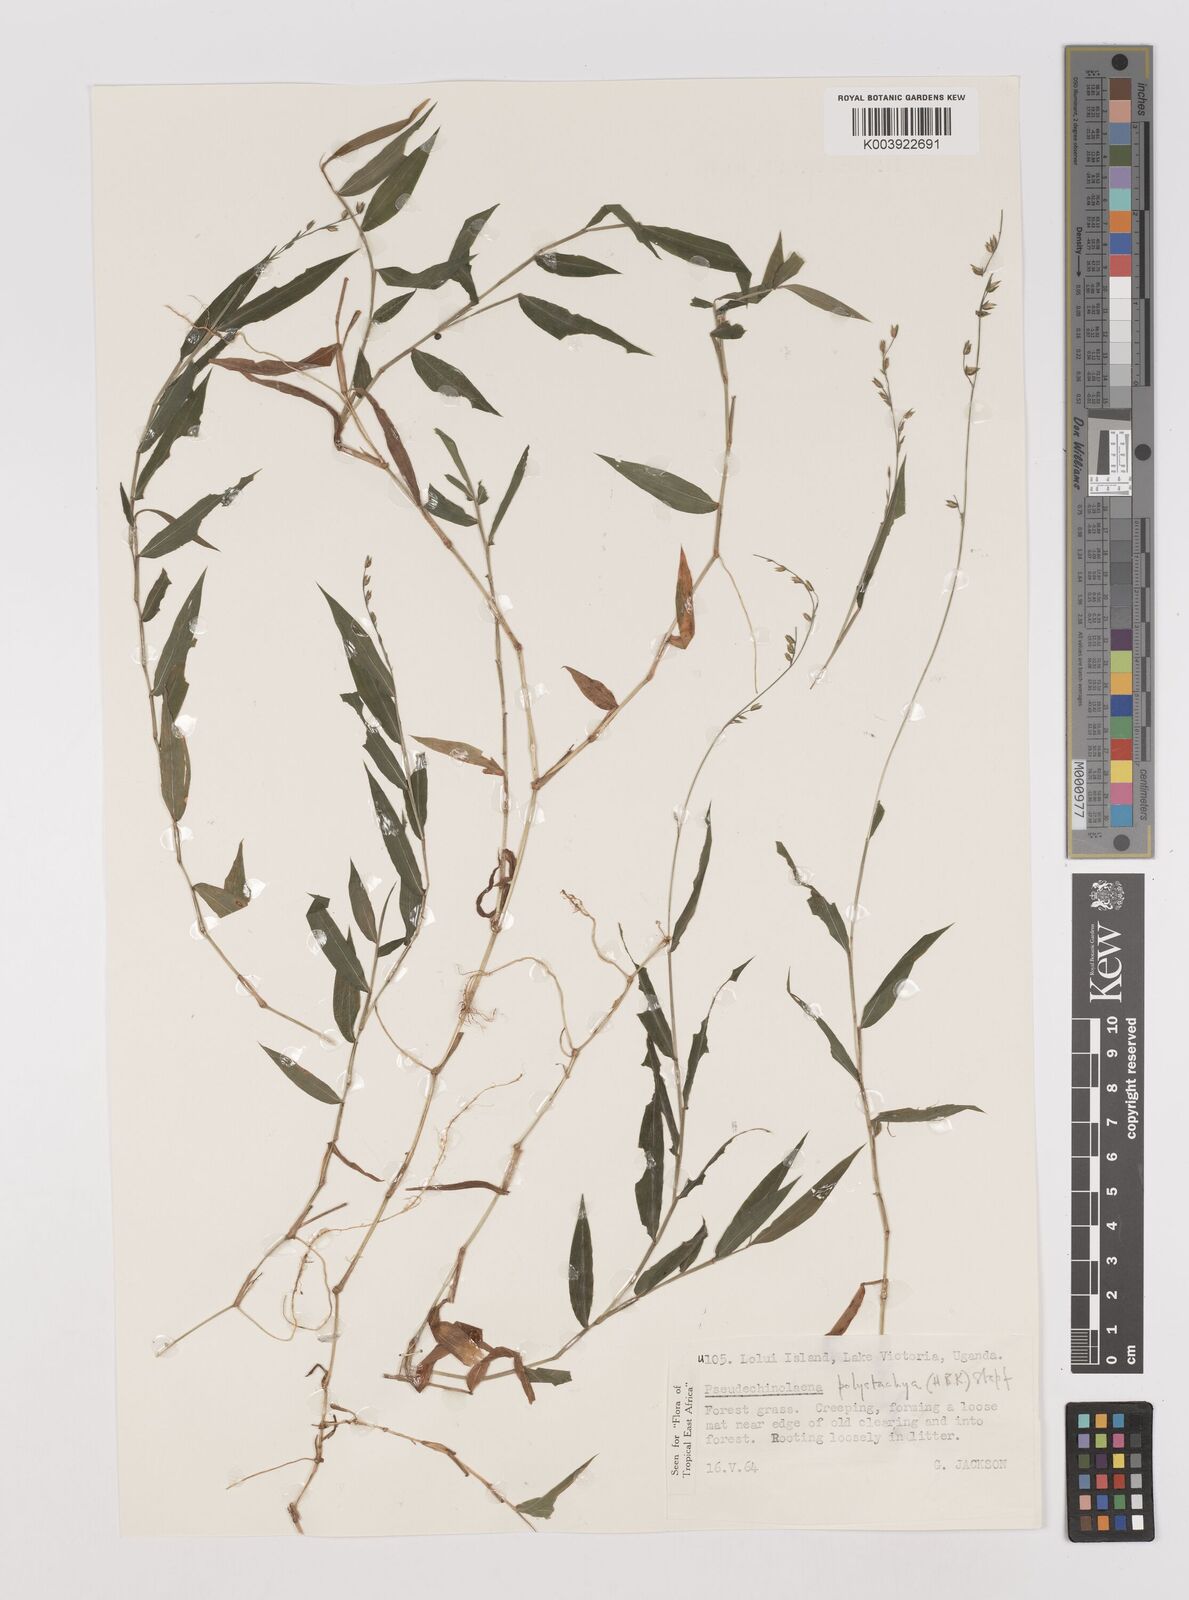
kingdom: Plantae
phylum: Tracheophyta
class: Liliopsida
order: Poales
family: Poaceae
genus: Pseudechinolaena
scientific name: Pseudechinolaena polystachya
